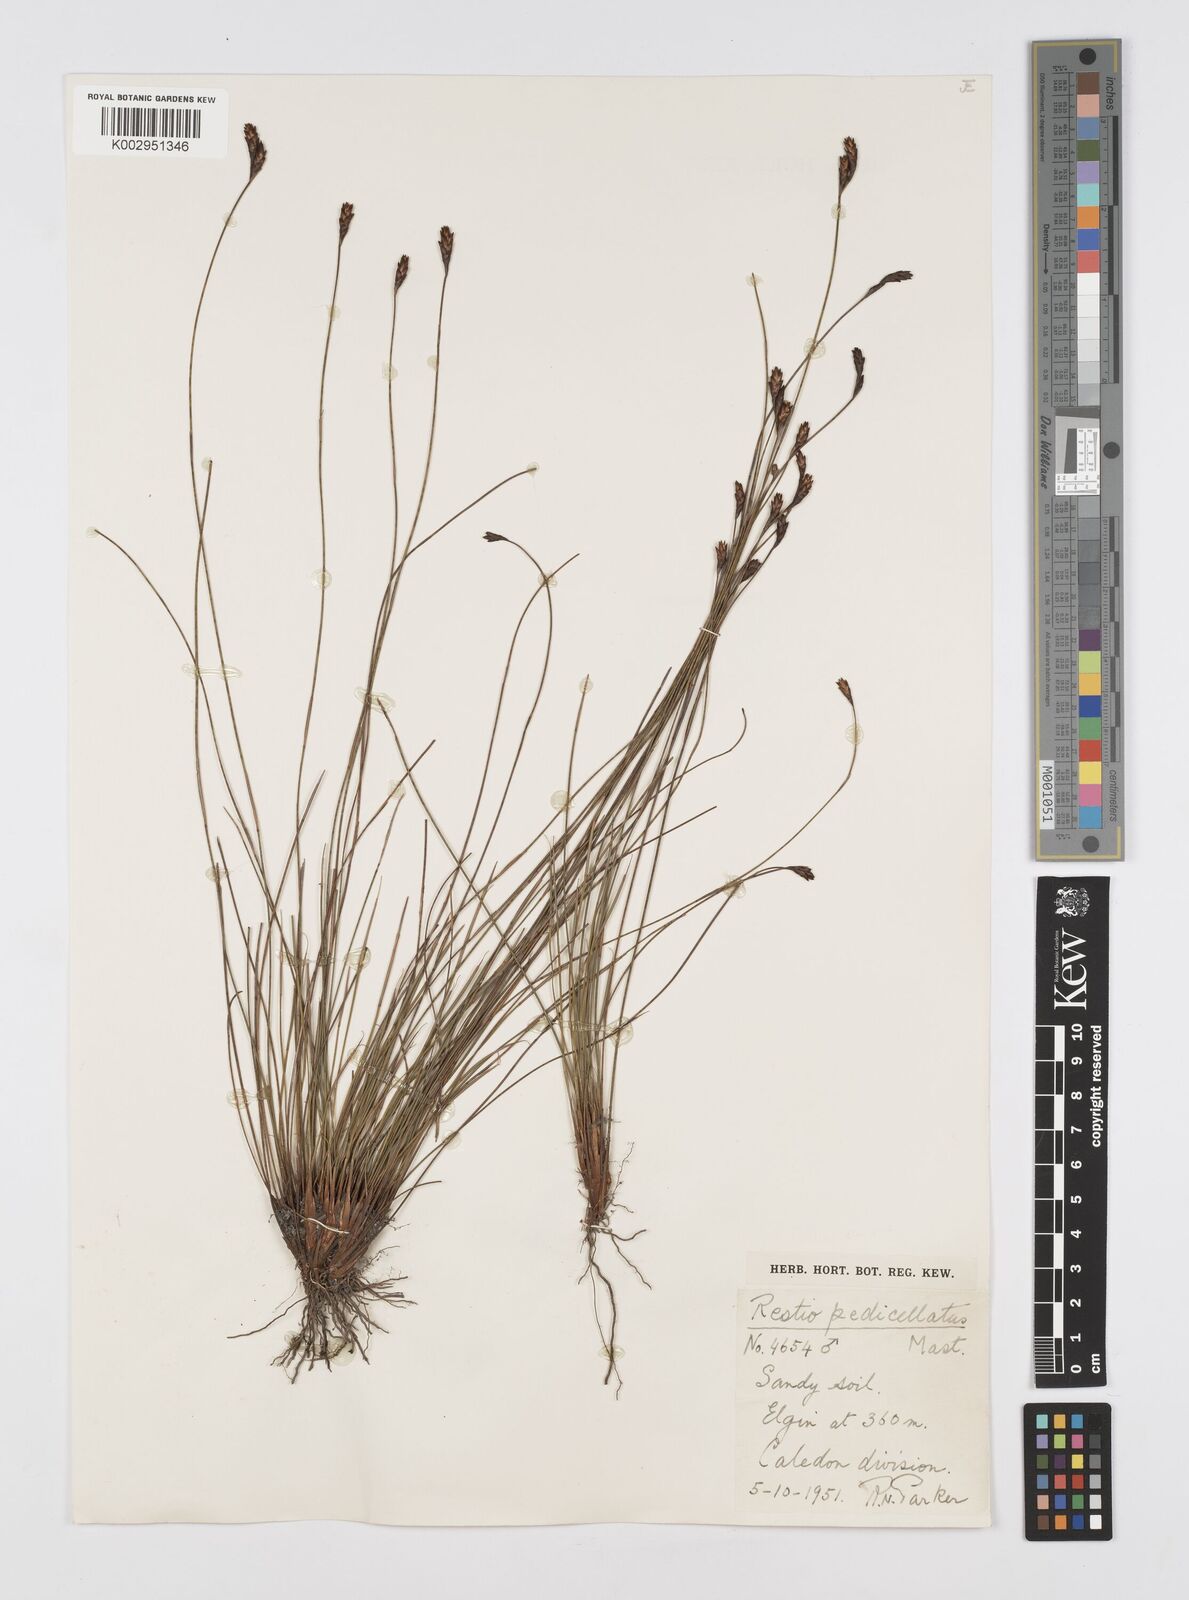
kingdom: Plantae
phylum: Tracheophyta
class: Liliopsida
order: Poales
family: Restionaceae
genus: Restio
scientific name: Restio pedicellatus
